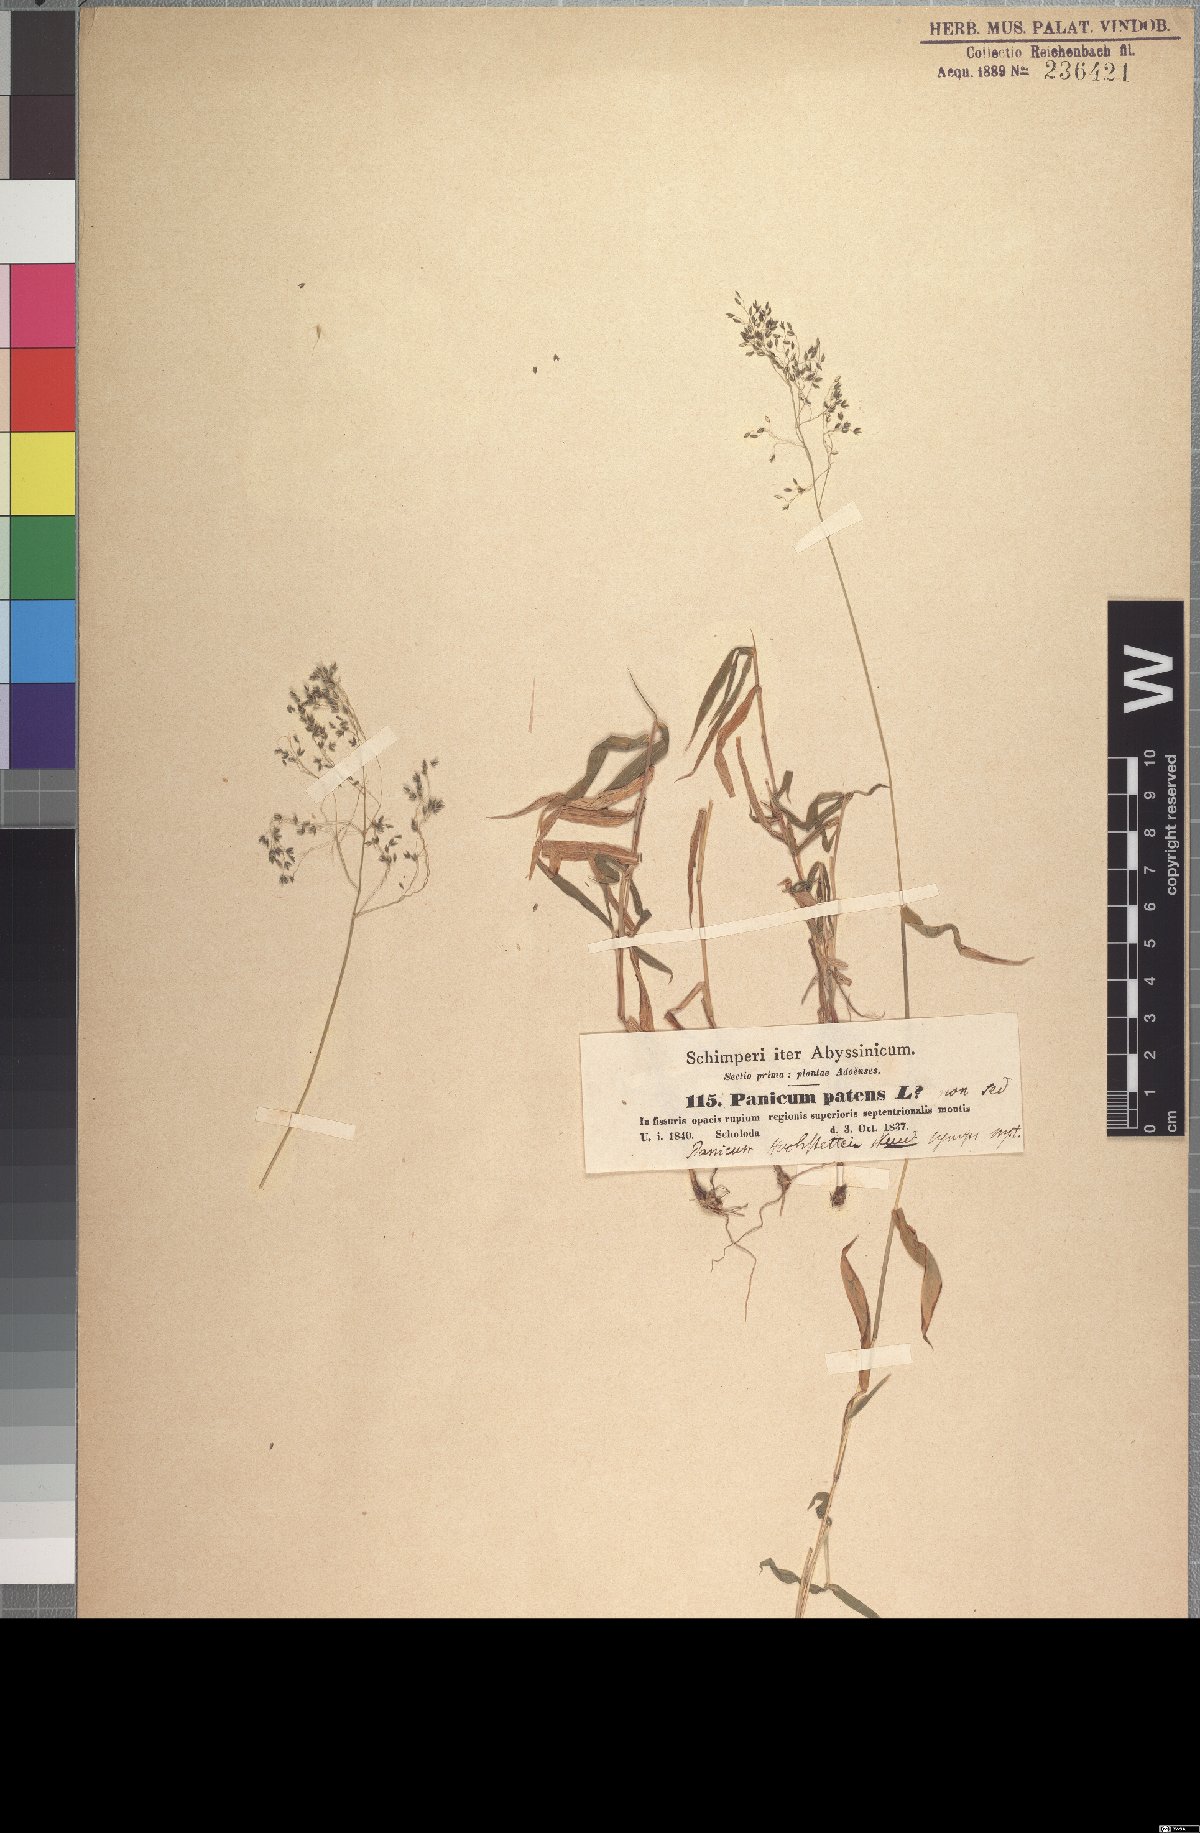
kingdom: Plantae
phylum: Tracheophyta
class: Liliopsida
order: Poales
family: Poaceae
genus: Panicum
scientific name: Panicum hochstetteri
